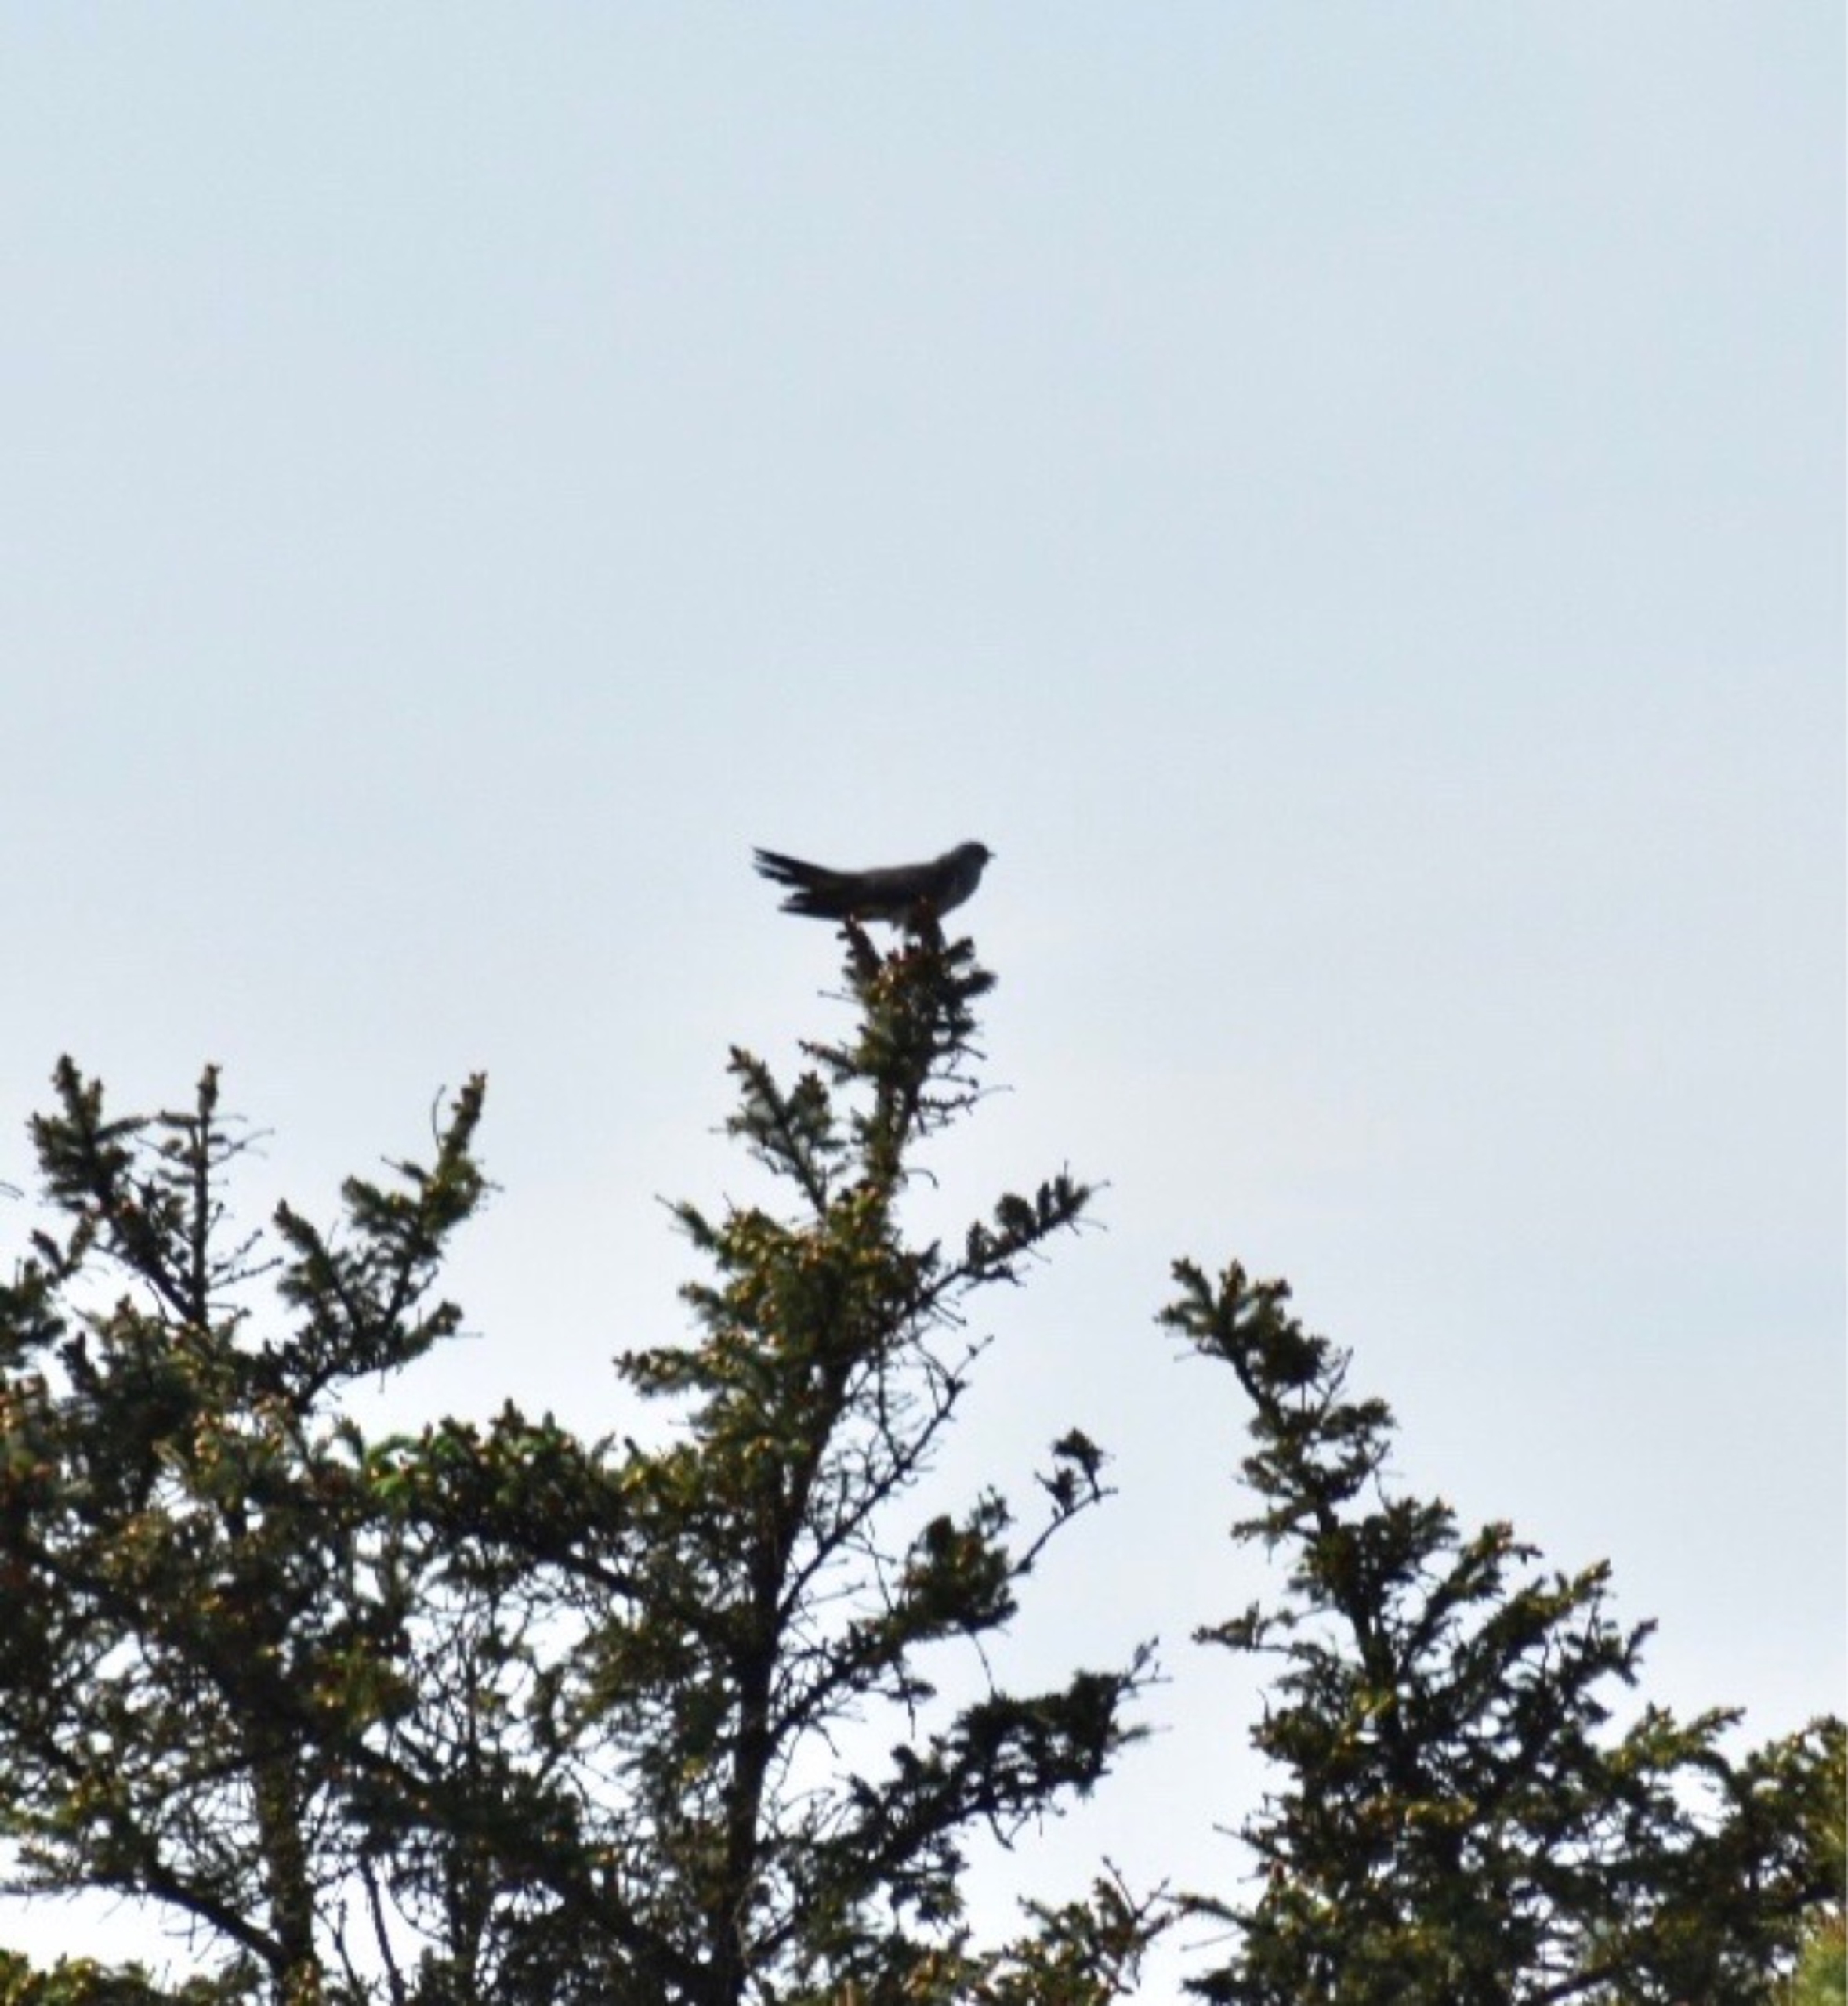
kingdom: Animalia
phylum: Chordata
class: Aves
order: Cuculiformes
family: Cuculidae
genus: Cuculus
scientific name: Cuculus canorus
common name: Gøg
